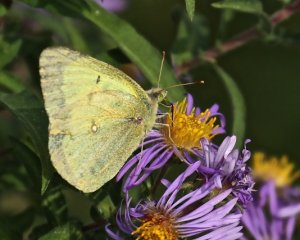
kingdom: Animalia
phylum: Arthropoda
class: Insecta
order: Lepidoptera
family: Pieridae
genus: Colias
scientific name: Colias philodice
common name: Clouded Sulphur
